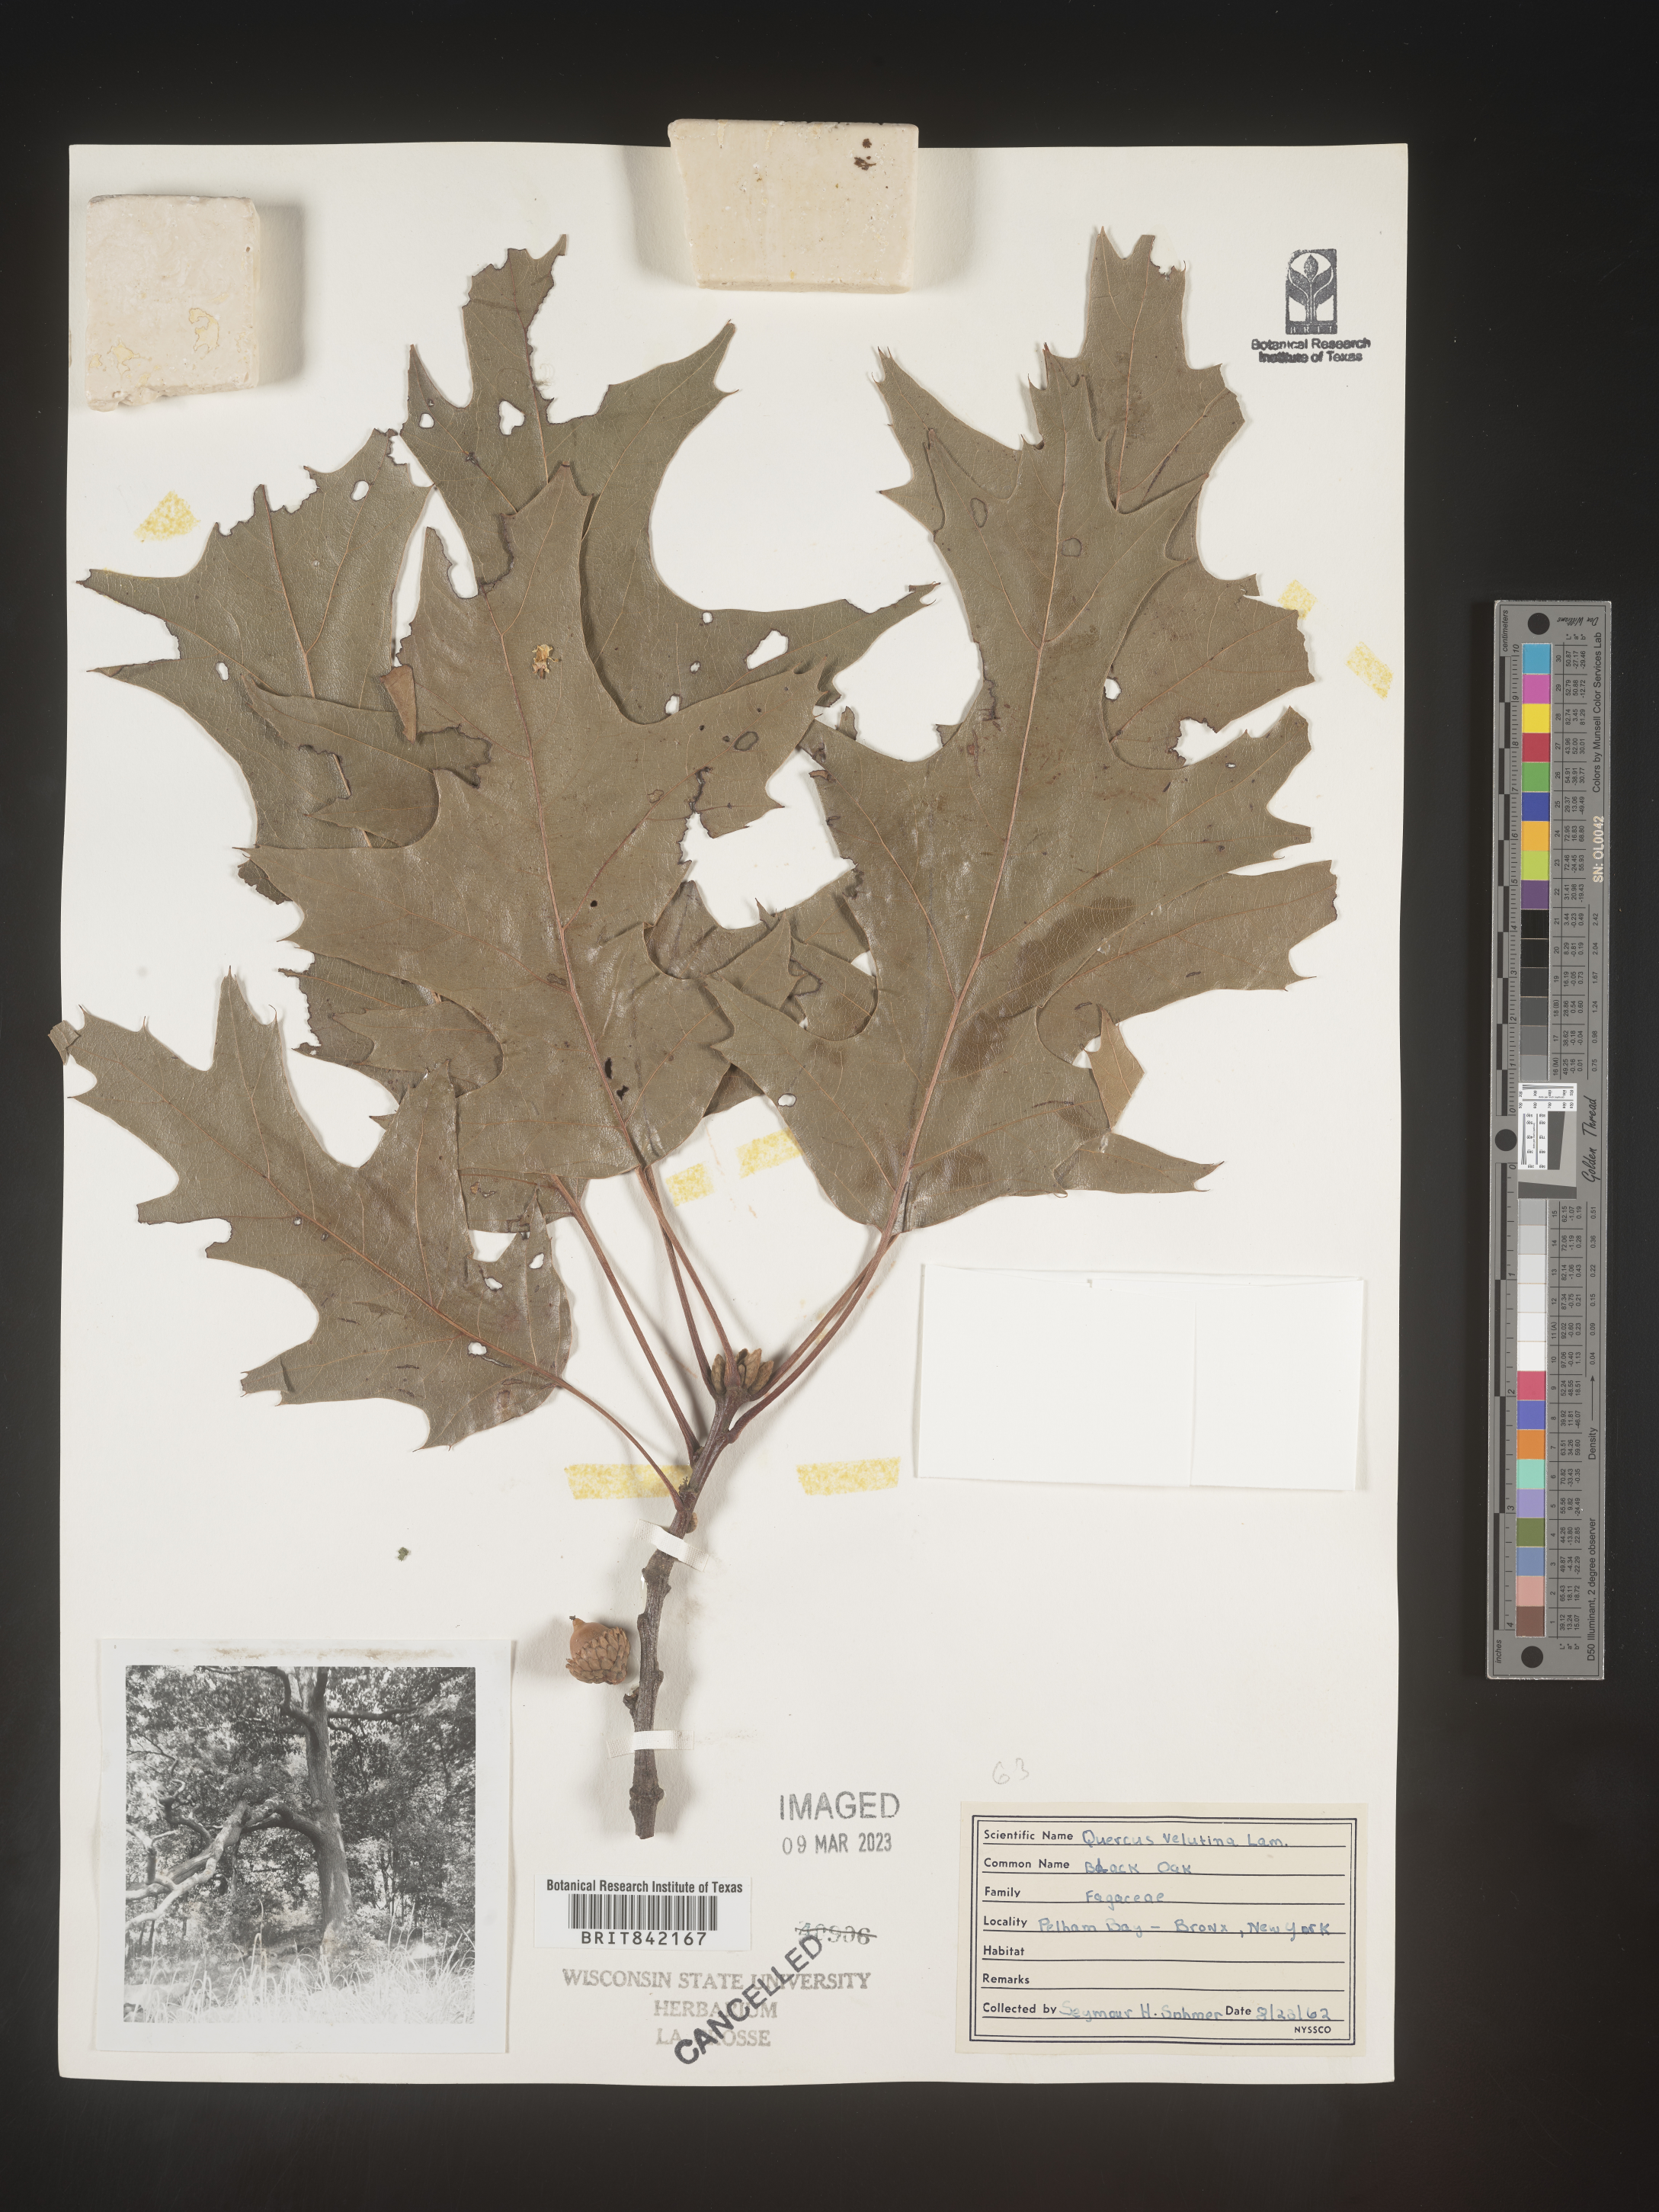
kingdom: Plantae
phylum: Tracheophyta
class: Magnoliopsida
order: Fagales
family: Fagaceae
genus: Quercus
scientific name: Quercus velutina
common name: Black oak
